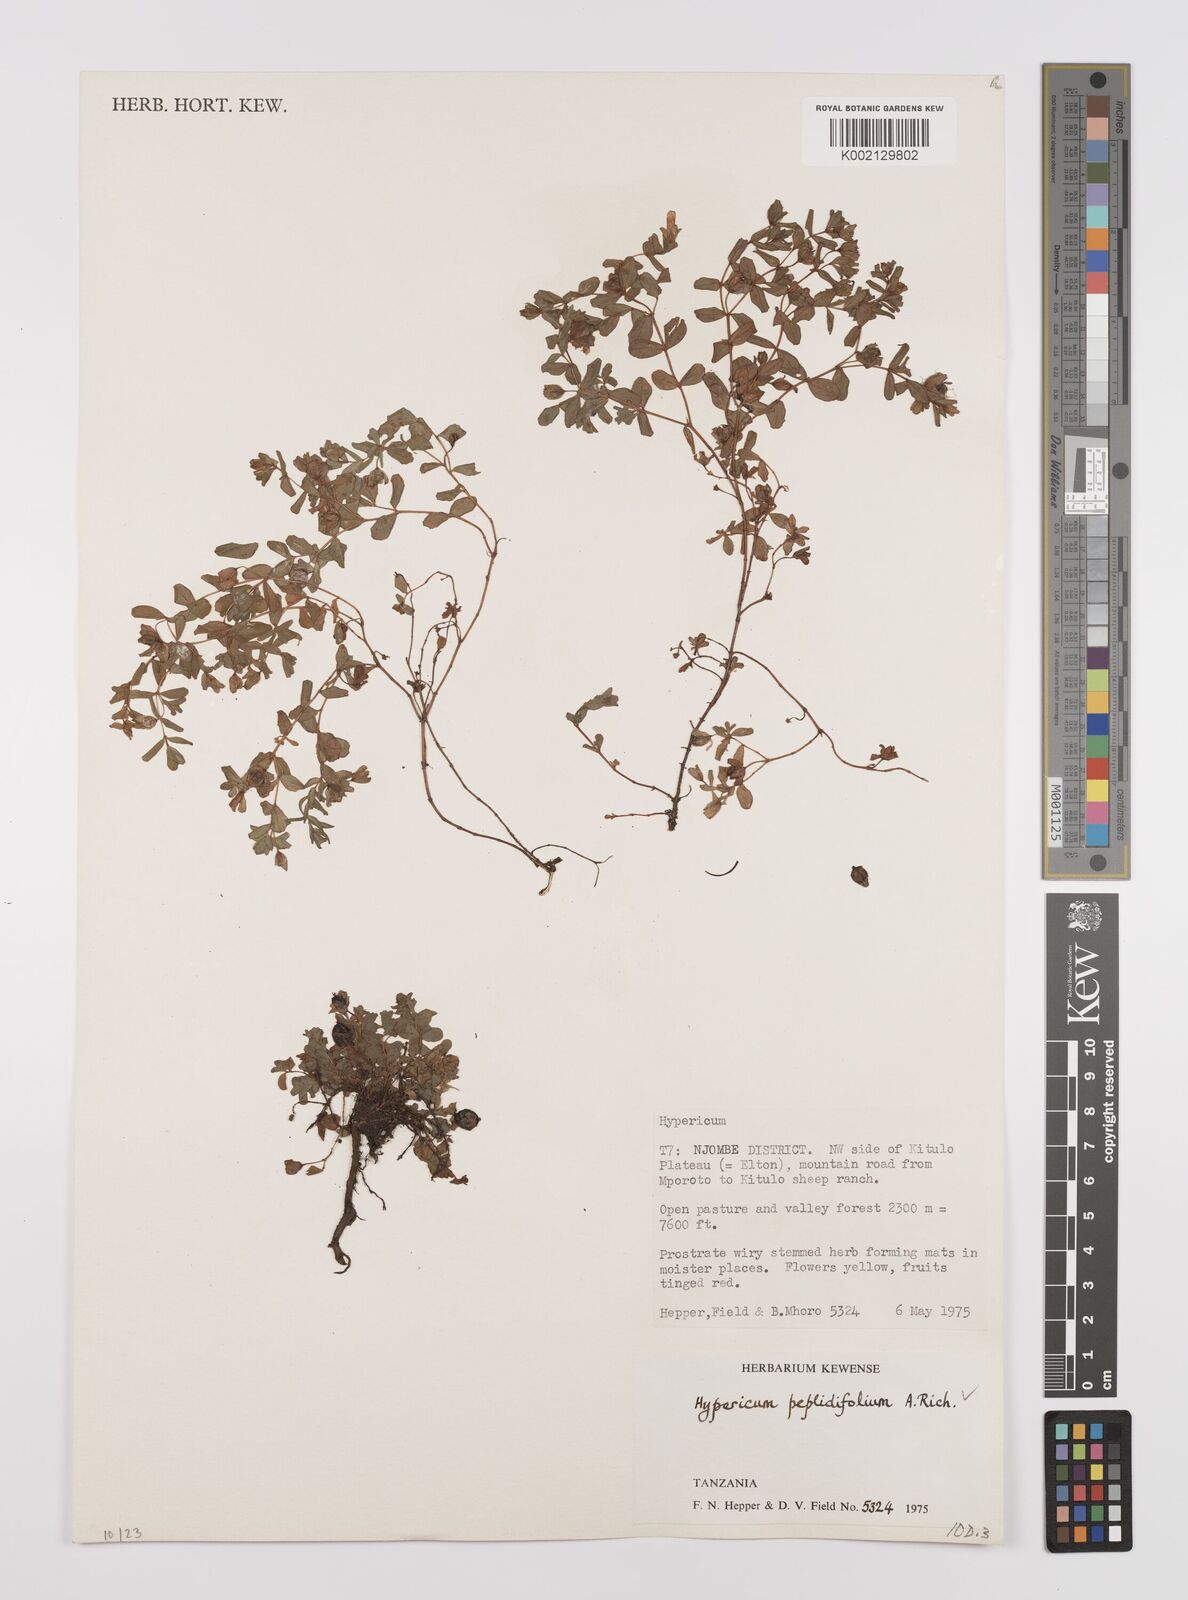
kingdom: Plantae
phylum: Tracheophyta
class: Magnoliopsida
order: Malpighiales
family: Hypericaceae
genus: Hypericum
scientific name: Hypericum peplidifolium
